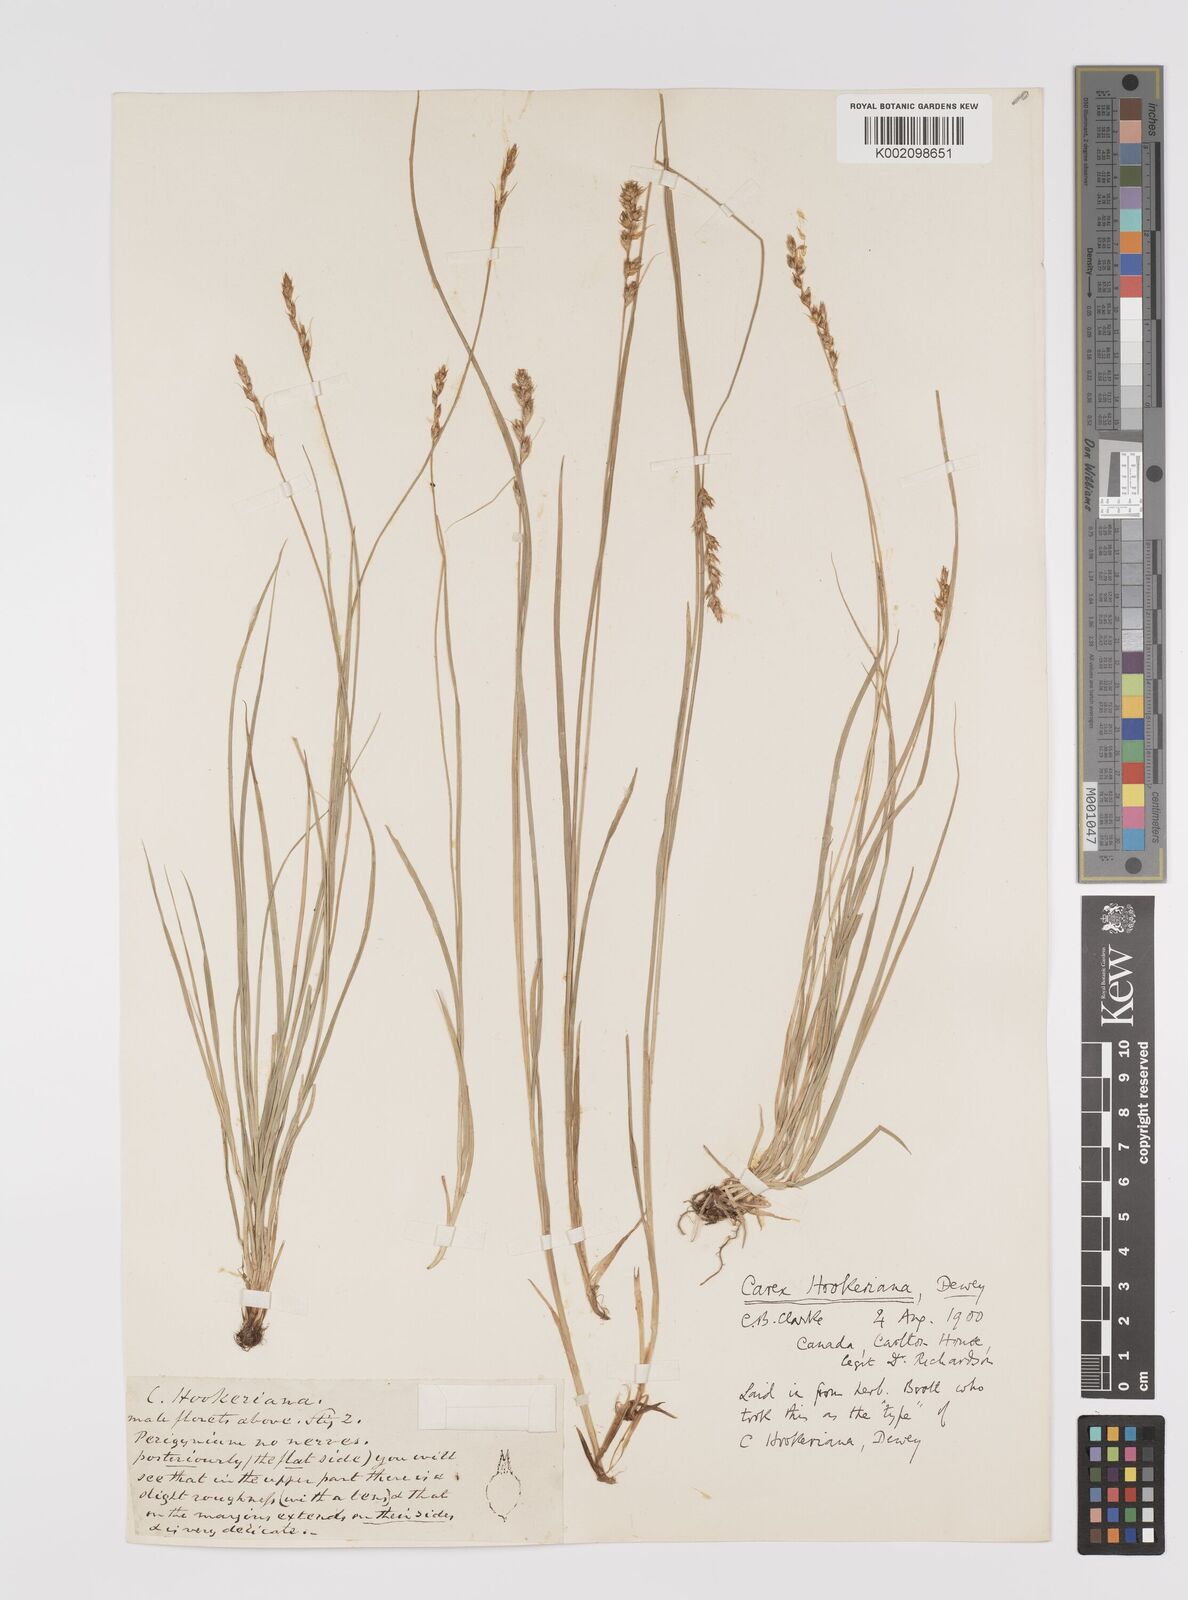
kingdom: Plantae
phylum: Tracheophyta
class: Liliopsida
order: Poales
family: Cyperaceae
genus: Carex
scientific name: Carex hookeriana
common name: Hooker's sedge
